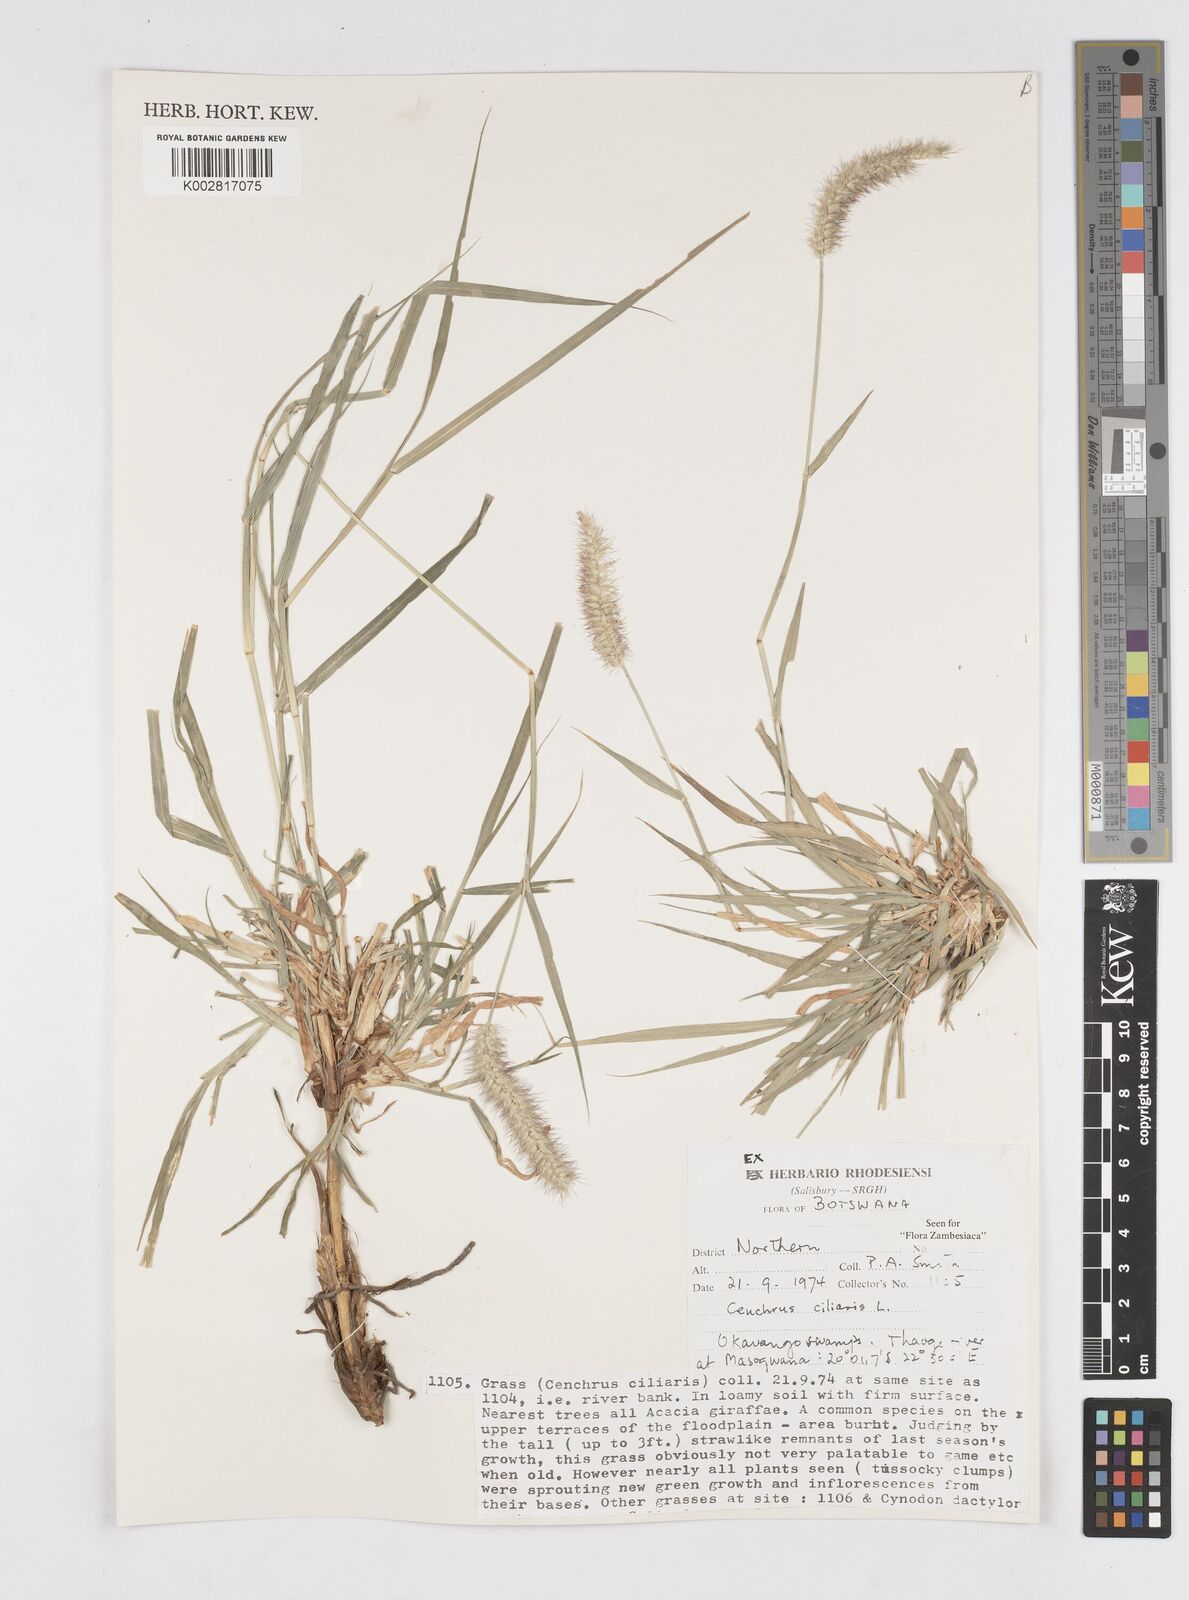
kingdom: Plantae
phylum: Tracheophyta
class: Liliopsida
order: Poales
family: Poaceae
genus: Cenchrus
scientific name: Cenchrus ciliaris
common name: Buffelgrass
